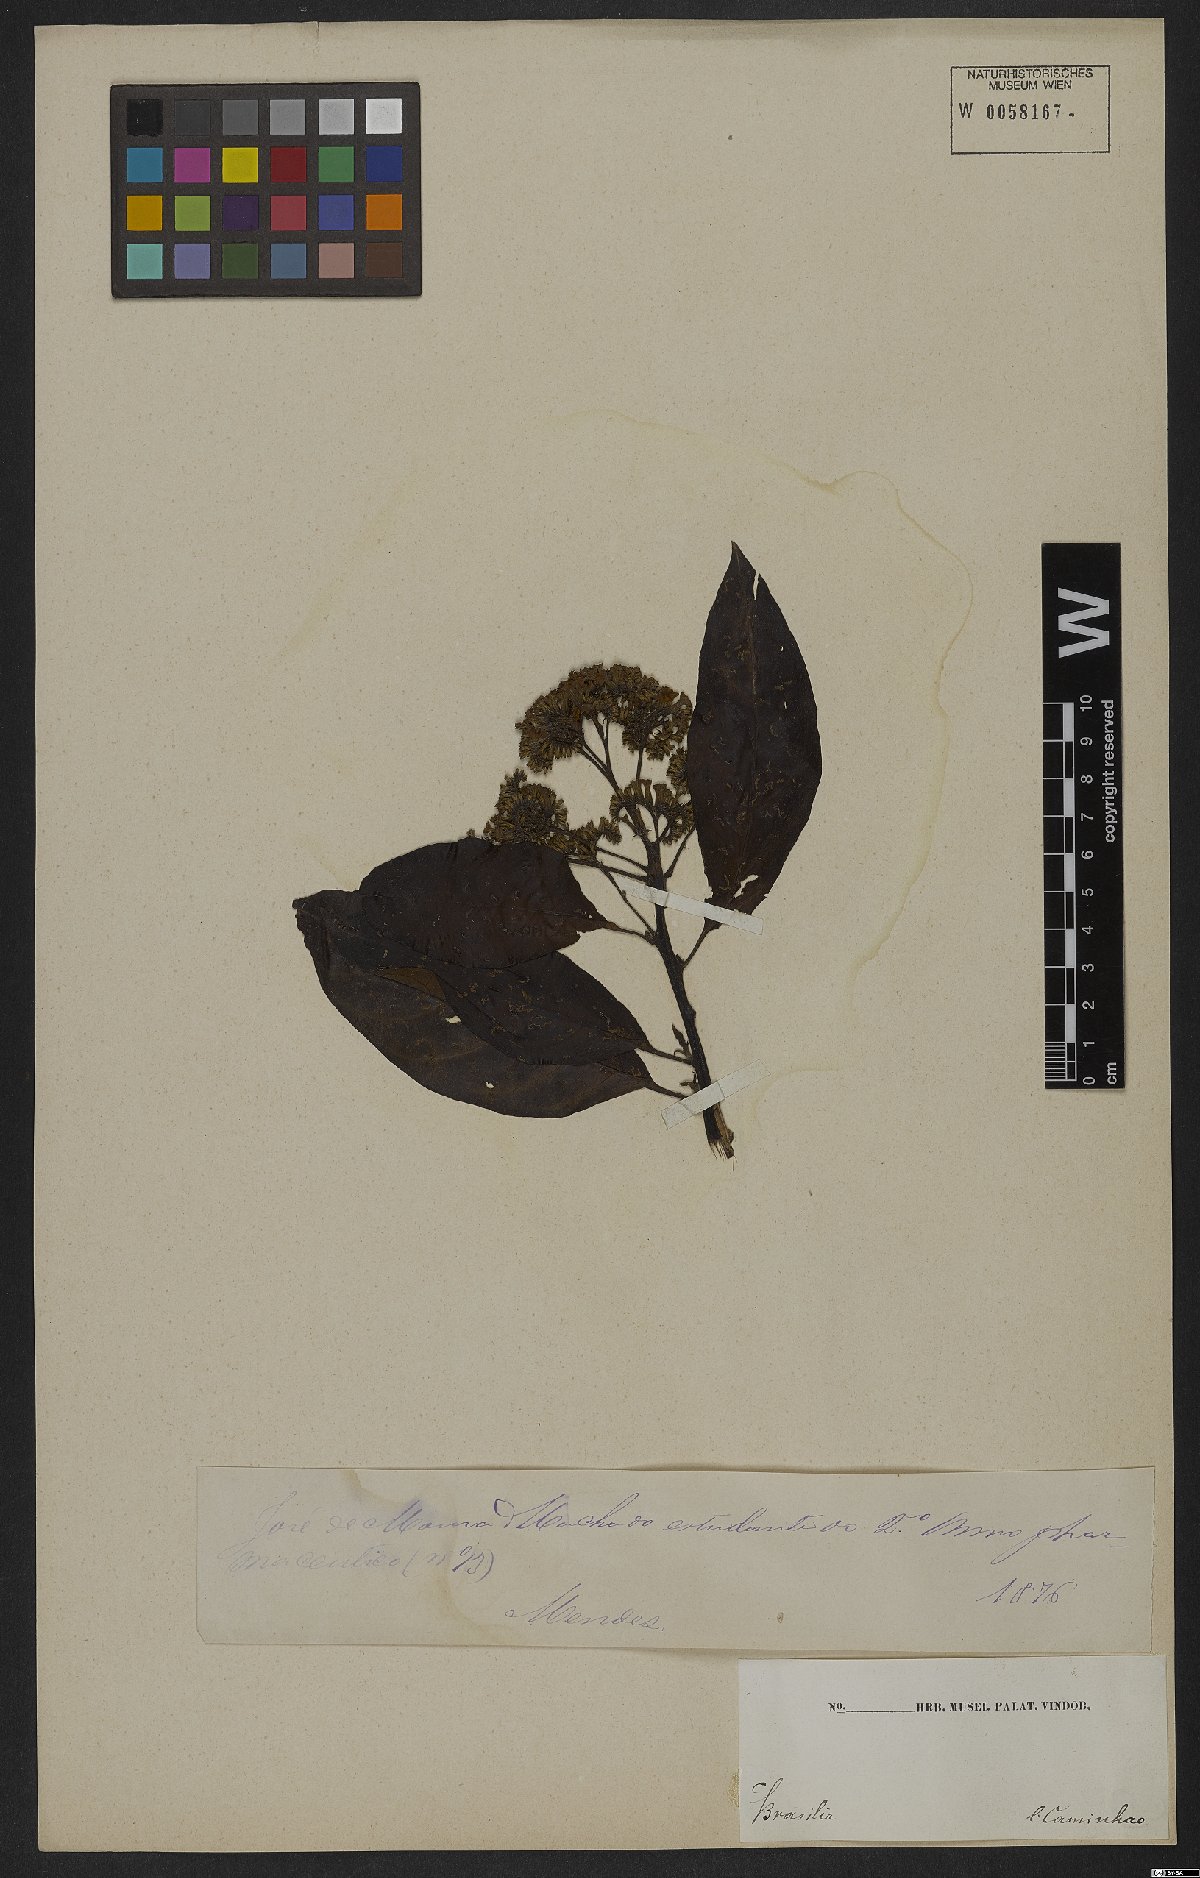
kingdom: Plantae
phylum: Tracheophyta
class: Magnoliopsida
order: Boraginales
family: Heliotropiaceae
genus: Heliotropium
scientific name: Heliotropium verdcourtii
